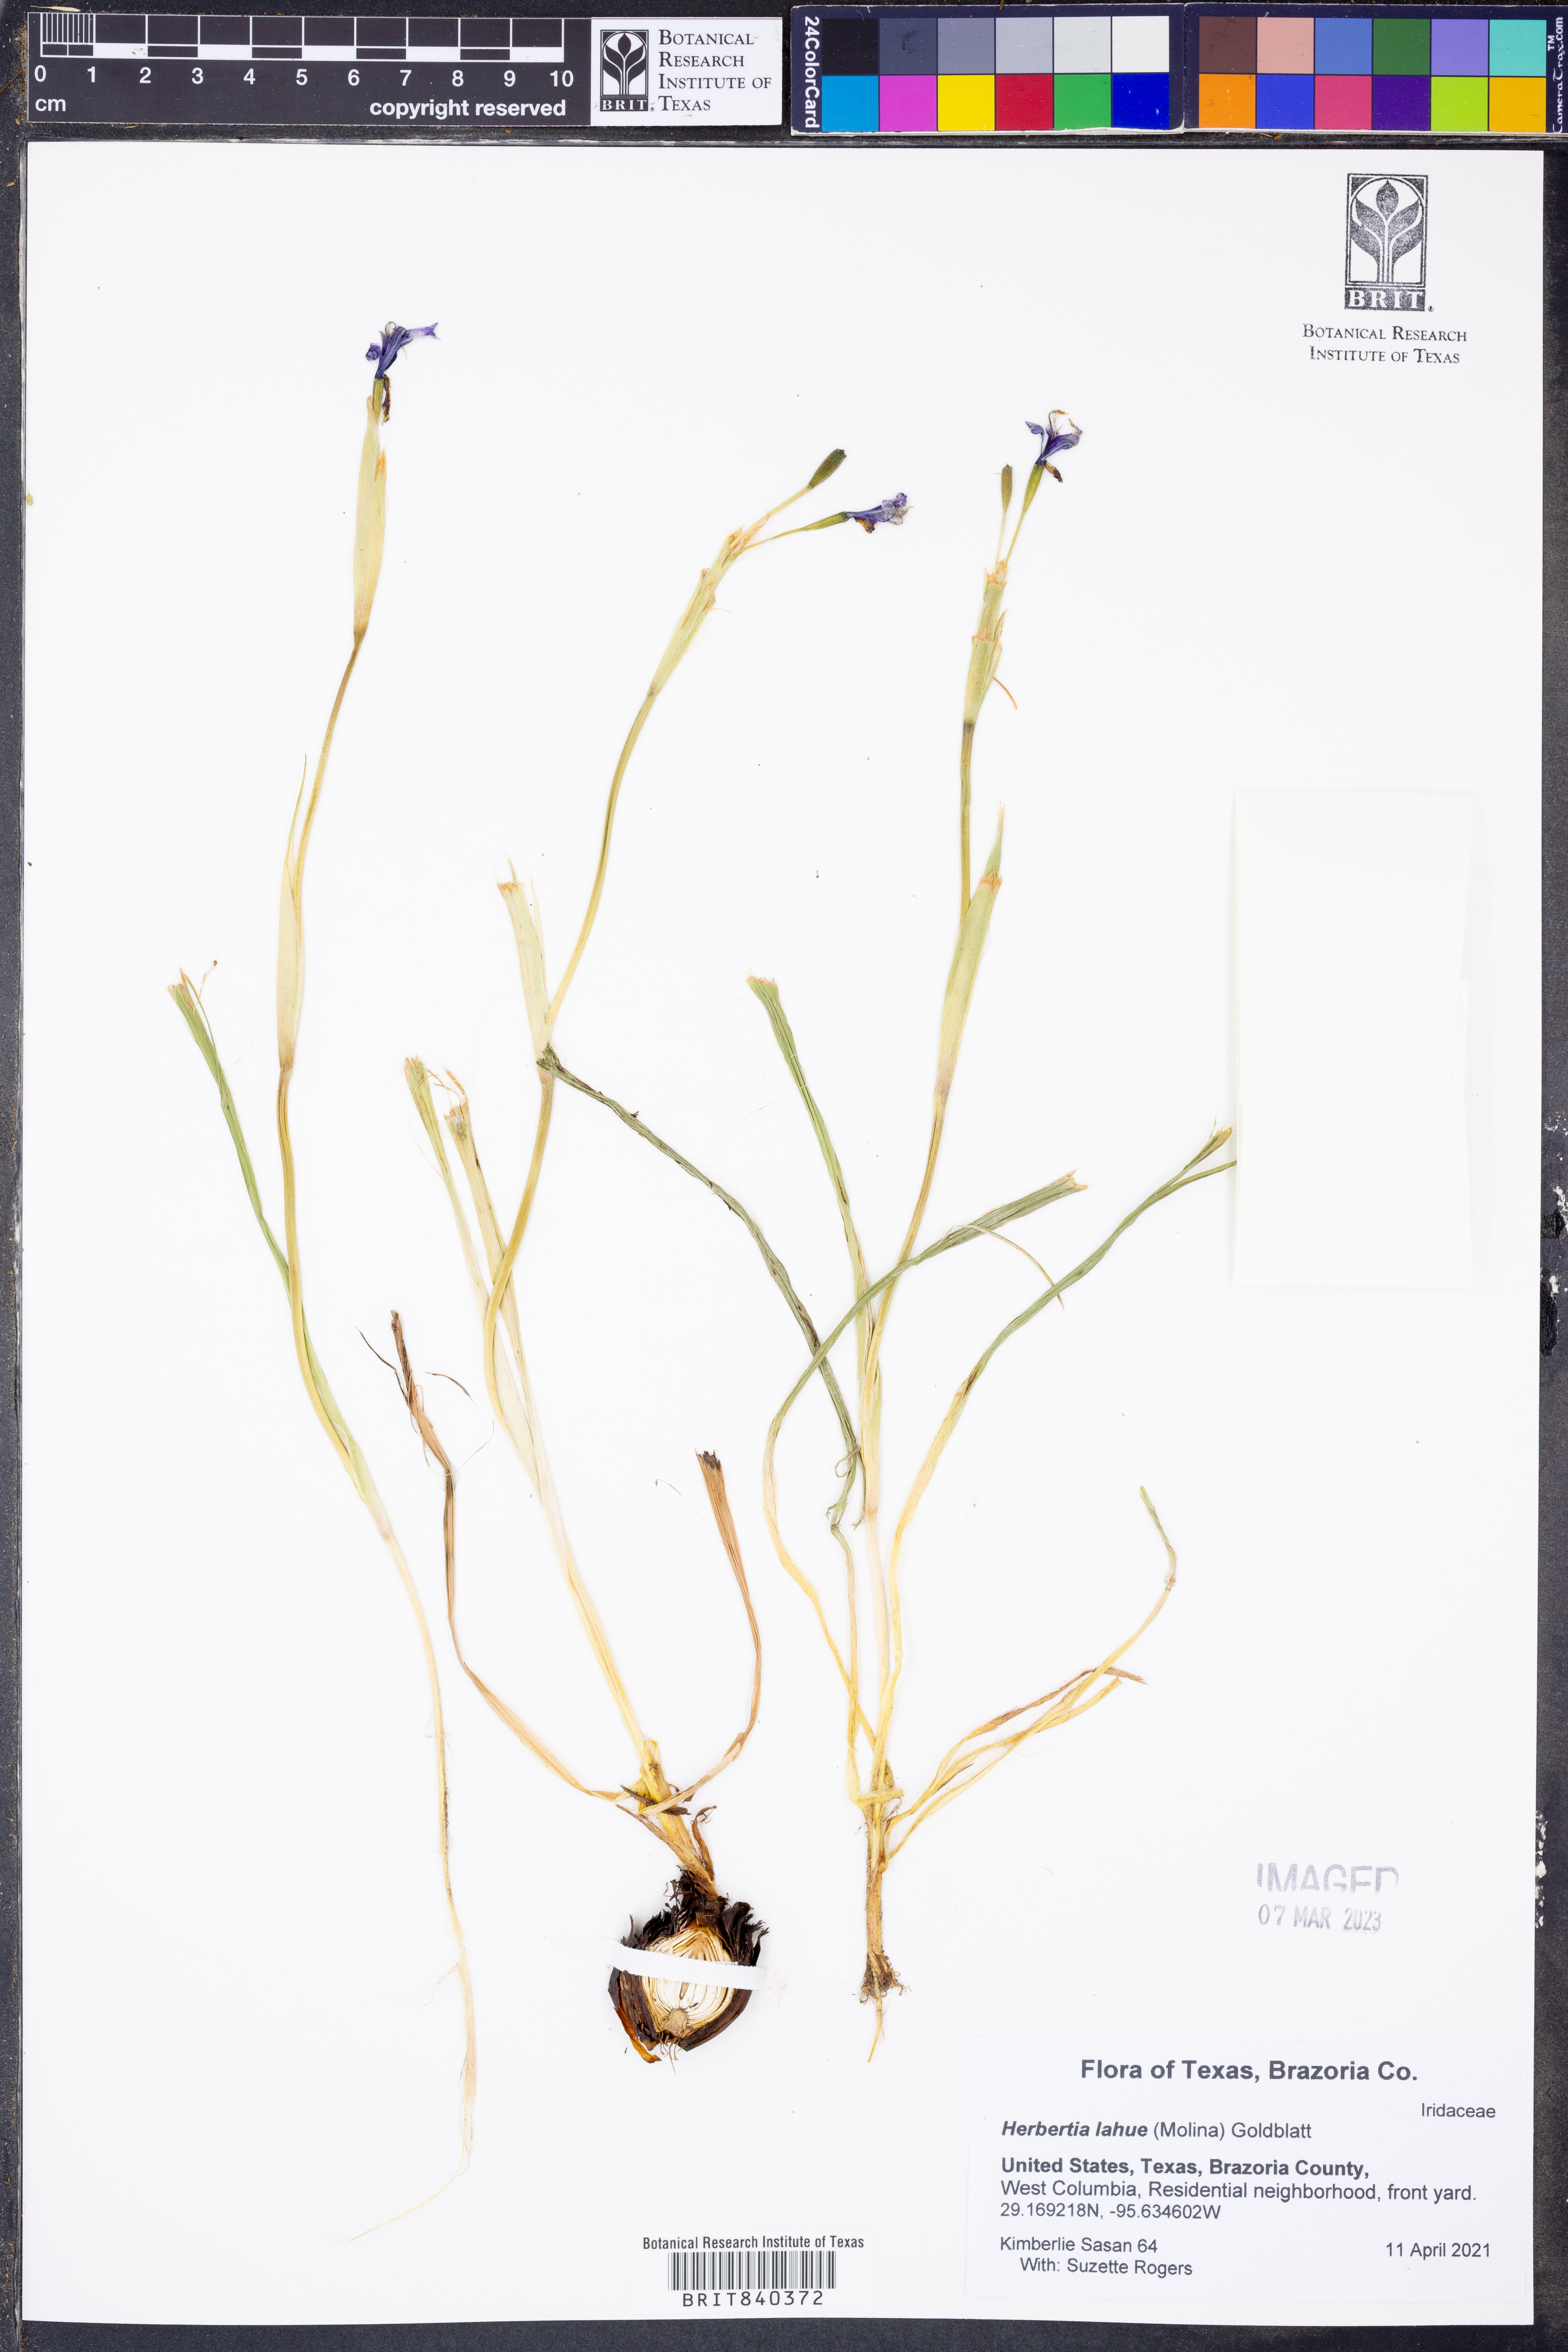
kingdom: Plantae
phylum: Tracheophyta
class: Liliopsida
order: Asparagales
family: Iridaceae
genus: Herbertia
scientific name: Herbertia lahue
